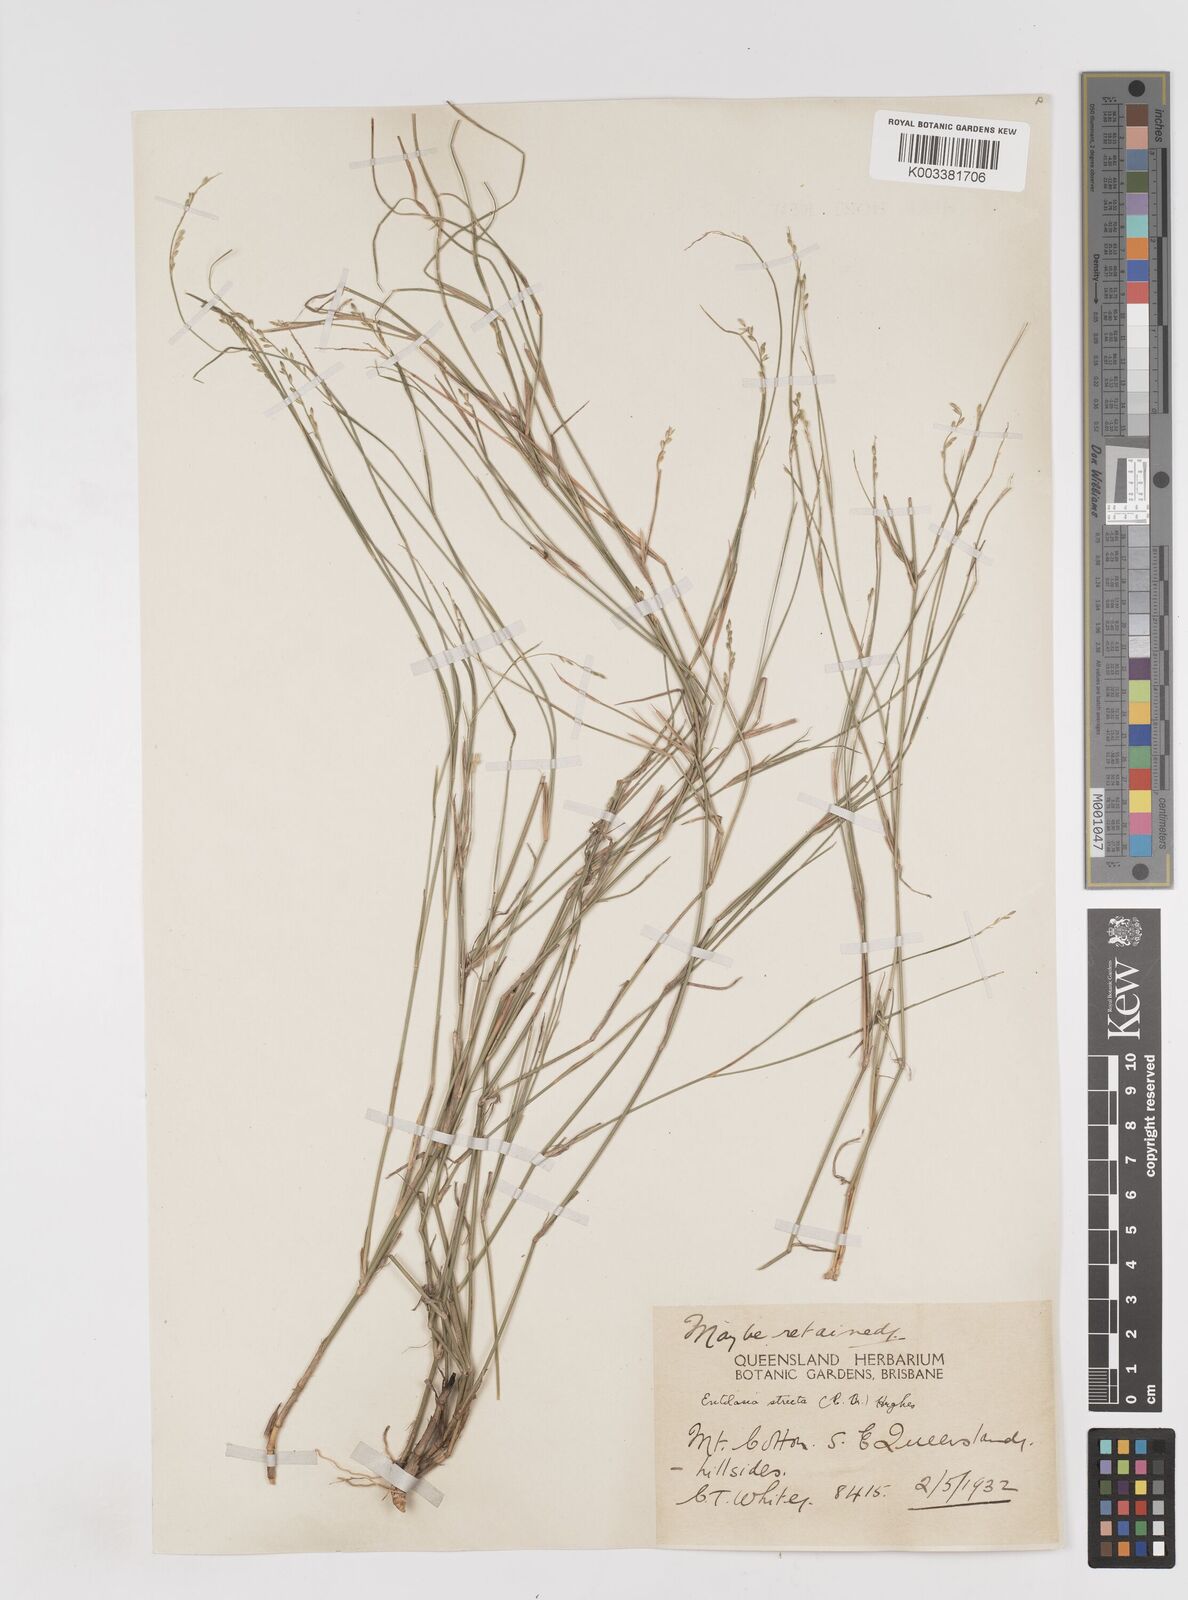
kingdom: Plantae
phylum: Tracheophyta
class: Liliopsida
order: Poales
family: Poaceae
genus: Entolasia
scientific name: Entolasia stricta
